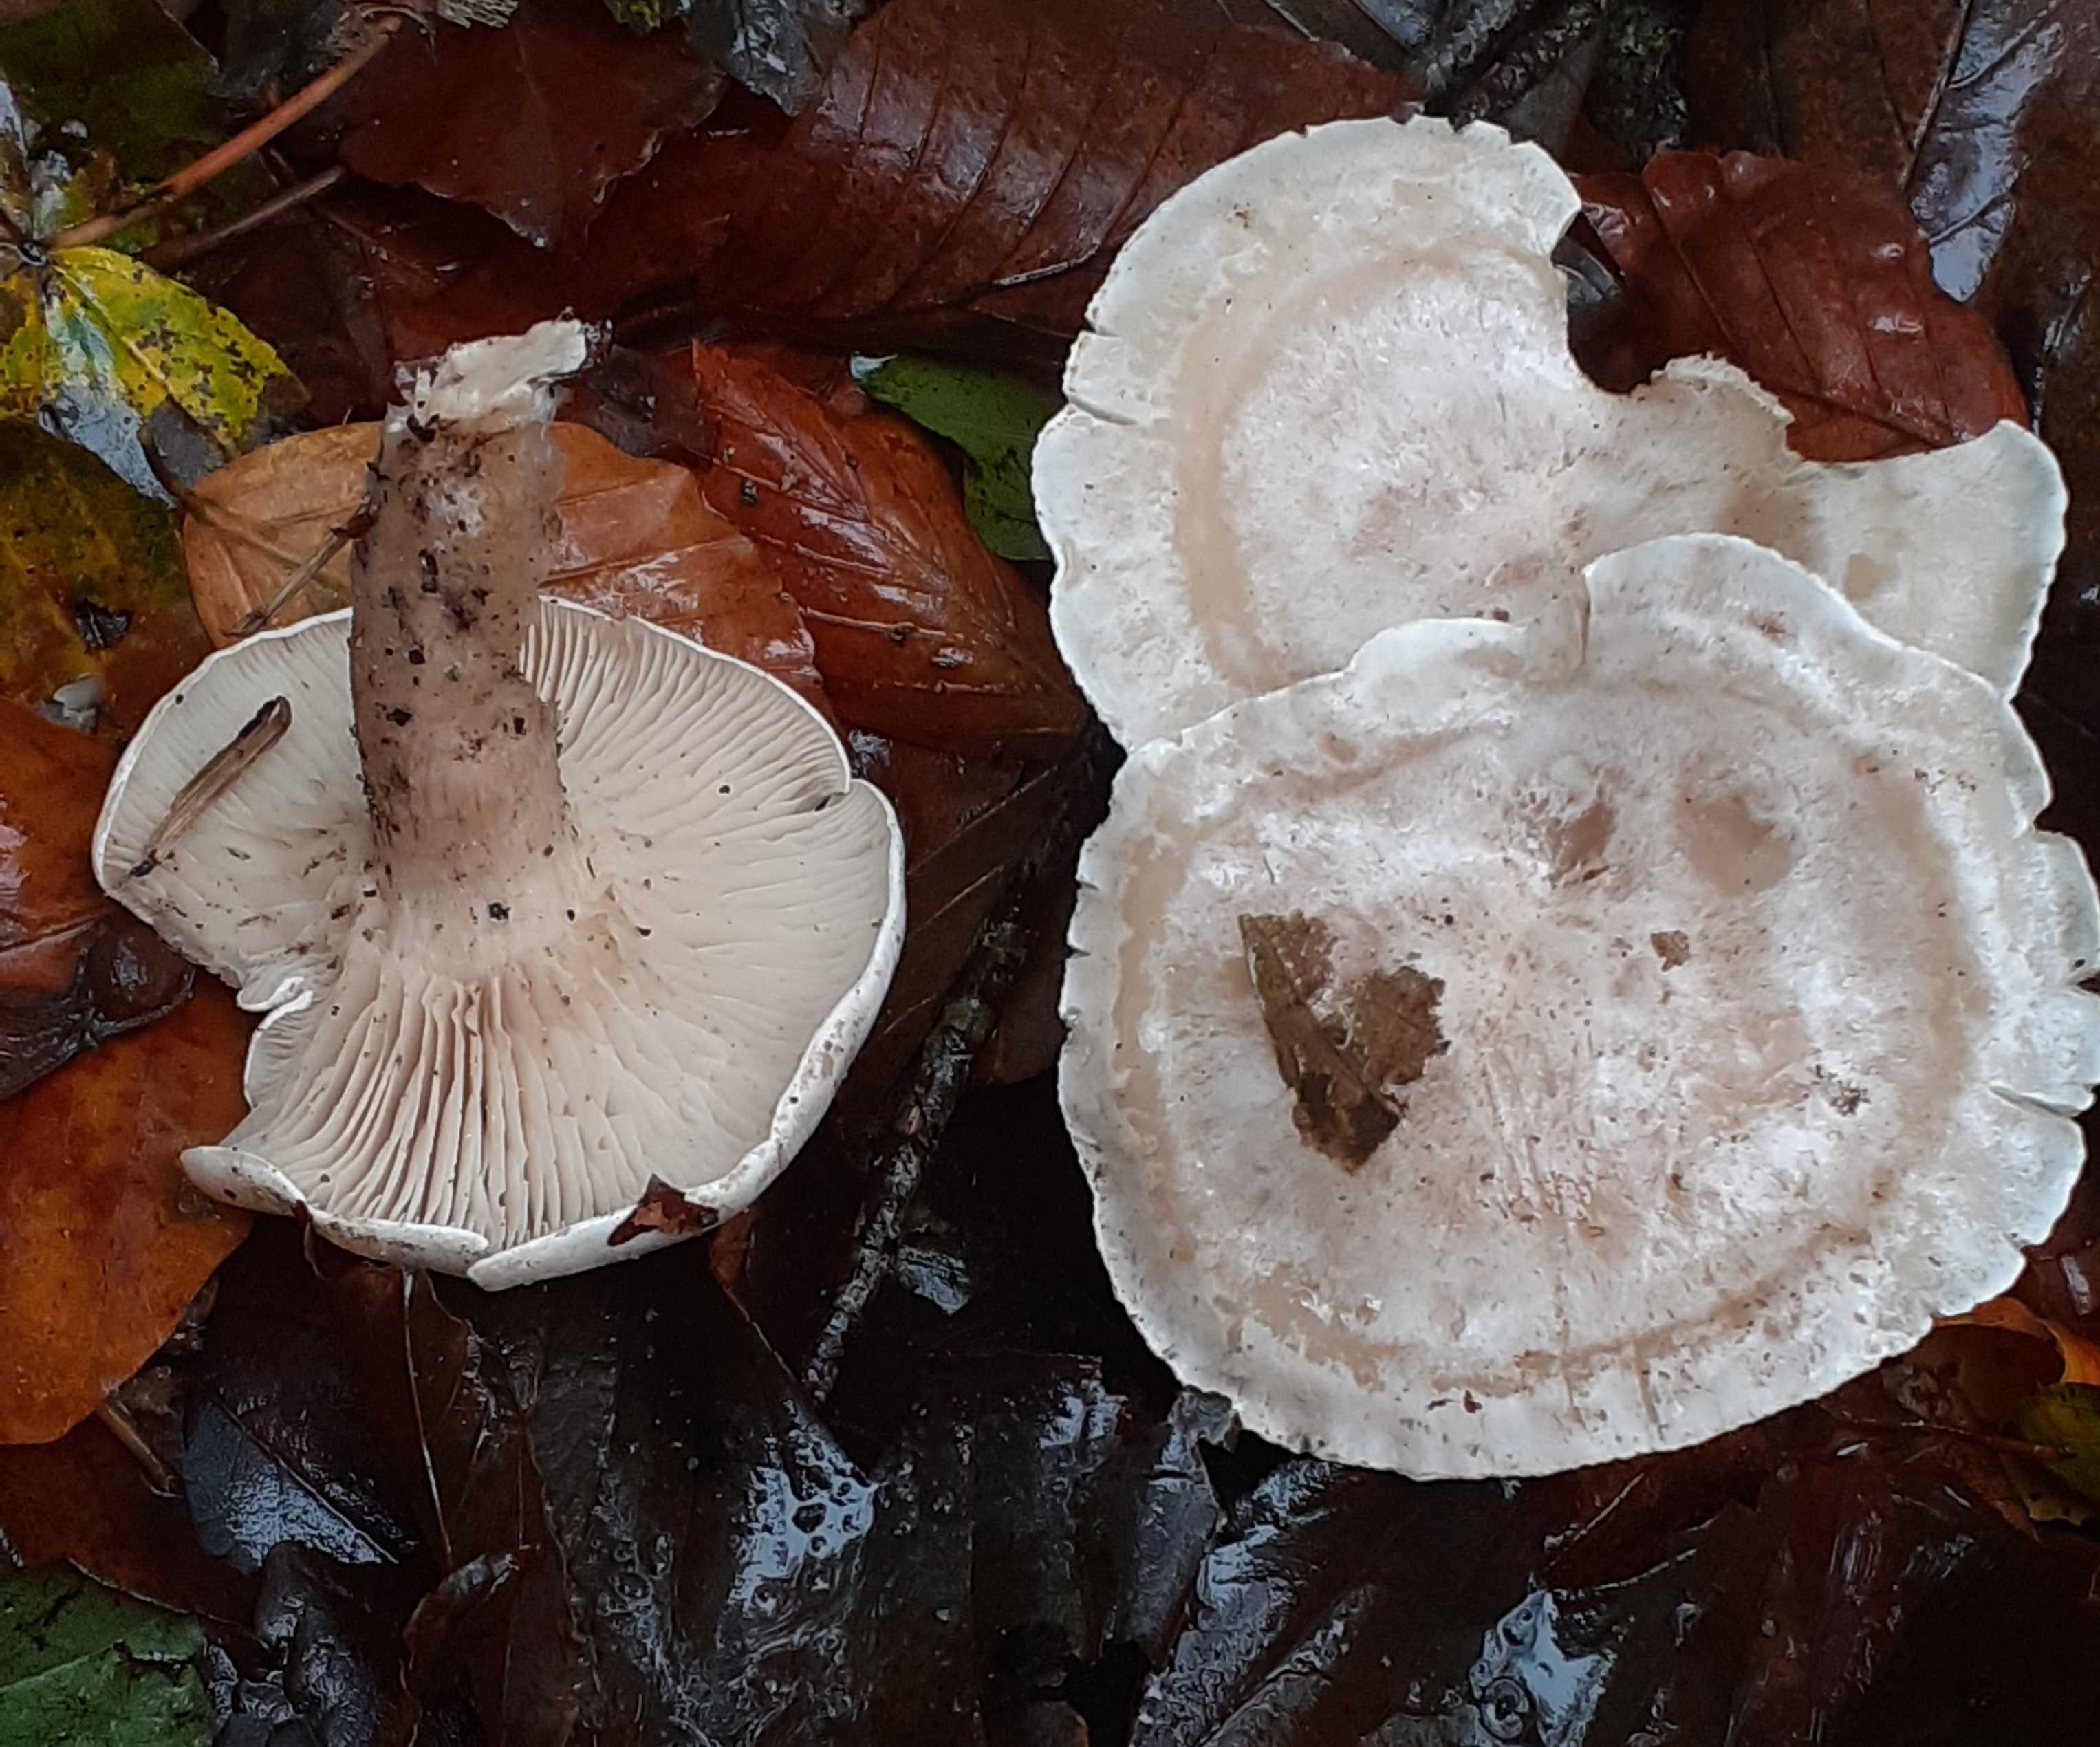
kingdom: Fungi
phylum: Basidiomycota
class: Agaricomycetes
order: Agaricales
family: Tricholomataceae
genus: Clitocybe
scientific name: Clitocybe phyllophila
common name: løv-tragthat
